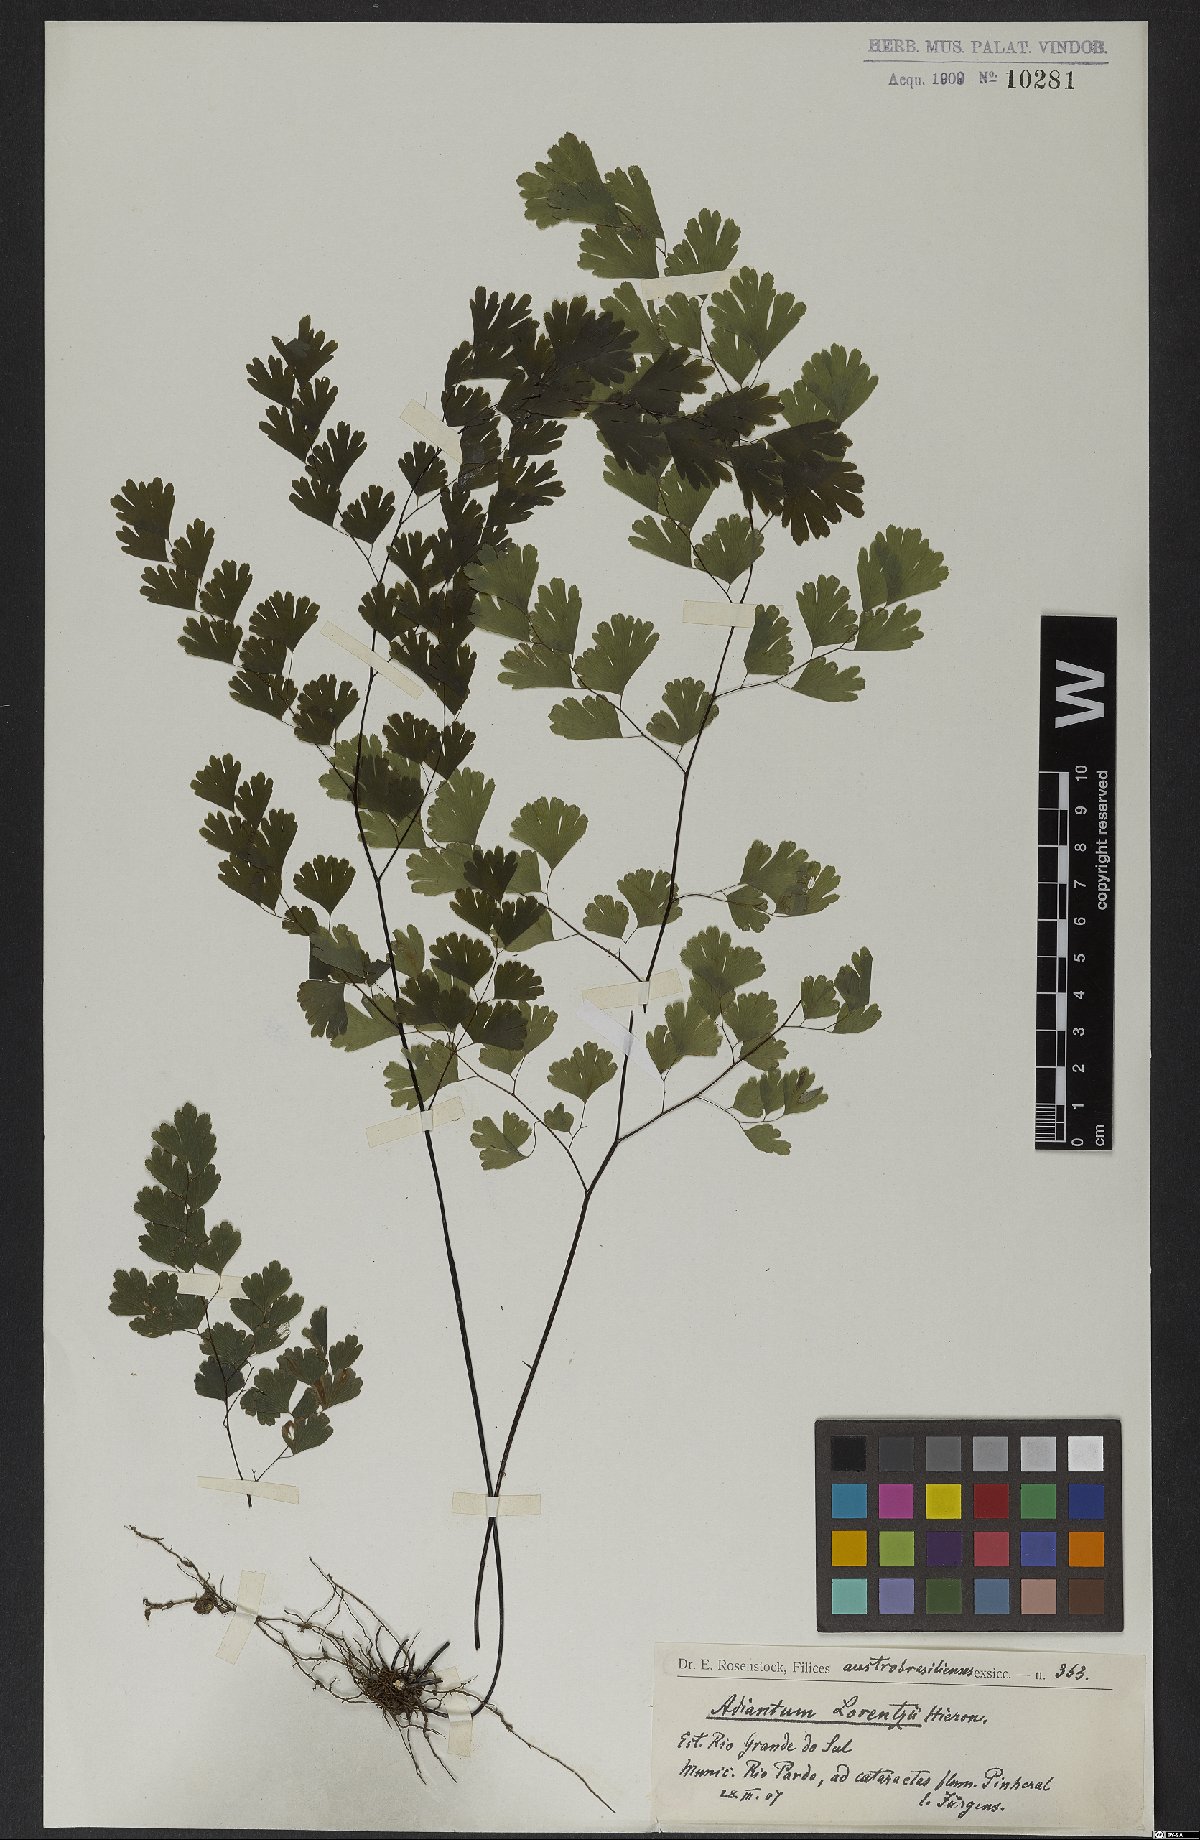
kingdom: Plantae
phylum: Tracheophyta
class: Polypodiopsida
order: Polypodiales
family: Pteridaceae
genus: Adiantum
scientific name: Adiantum lorentzii
